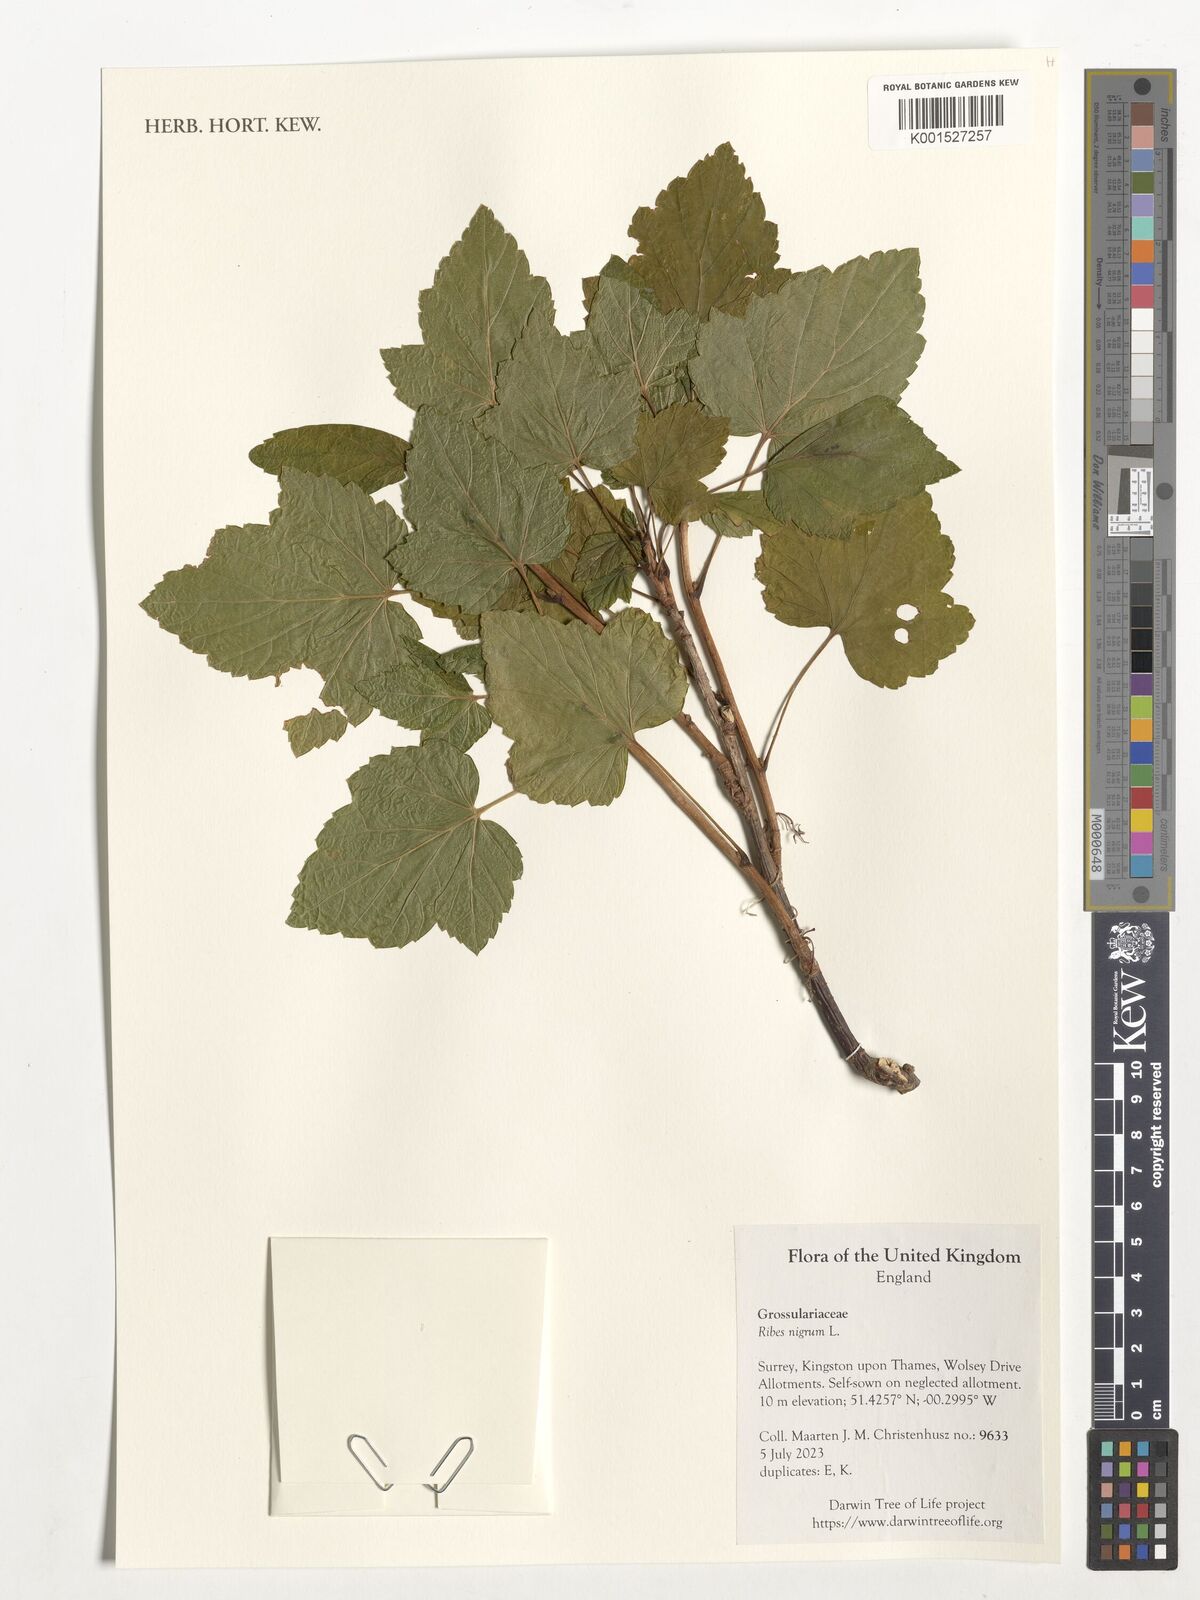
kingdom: Plantae
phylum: Tracheophyta
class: Magnoliopsida
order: Saxifragales
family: Grossulariaceae
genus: Ribes
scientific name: Ribes nigrum
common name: Black currant
